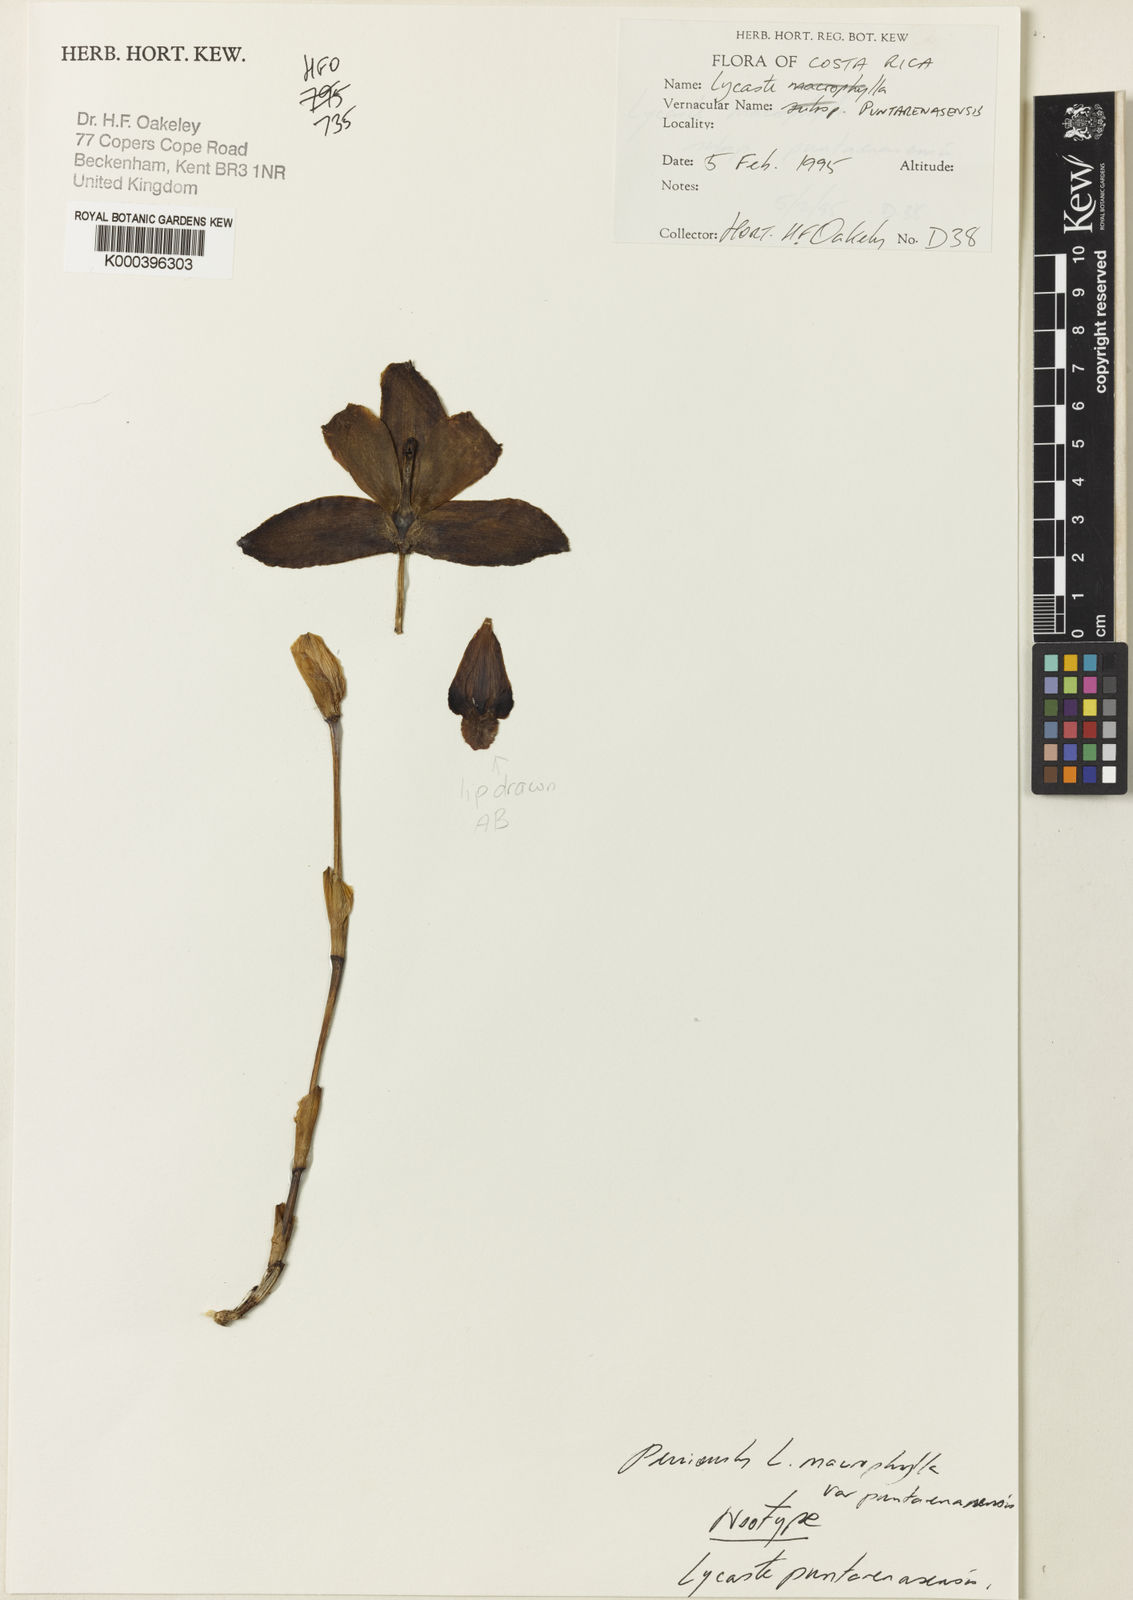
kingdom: Plantae
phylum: Tracheophyta
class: Liliopsida
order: Asparagales
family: Orchidaceae
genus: Lycaste
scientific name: Lycaste puntarenasensis
